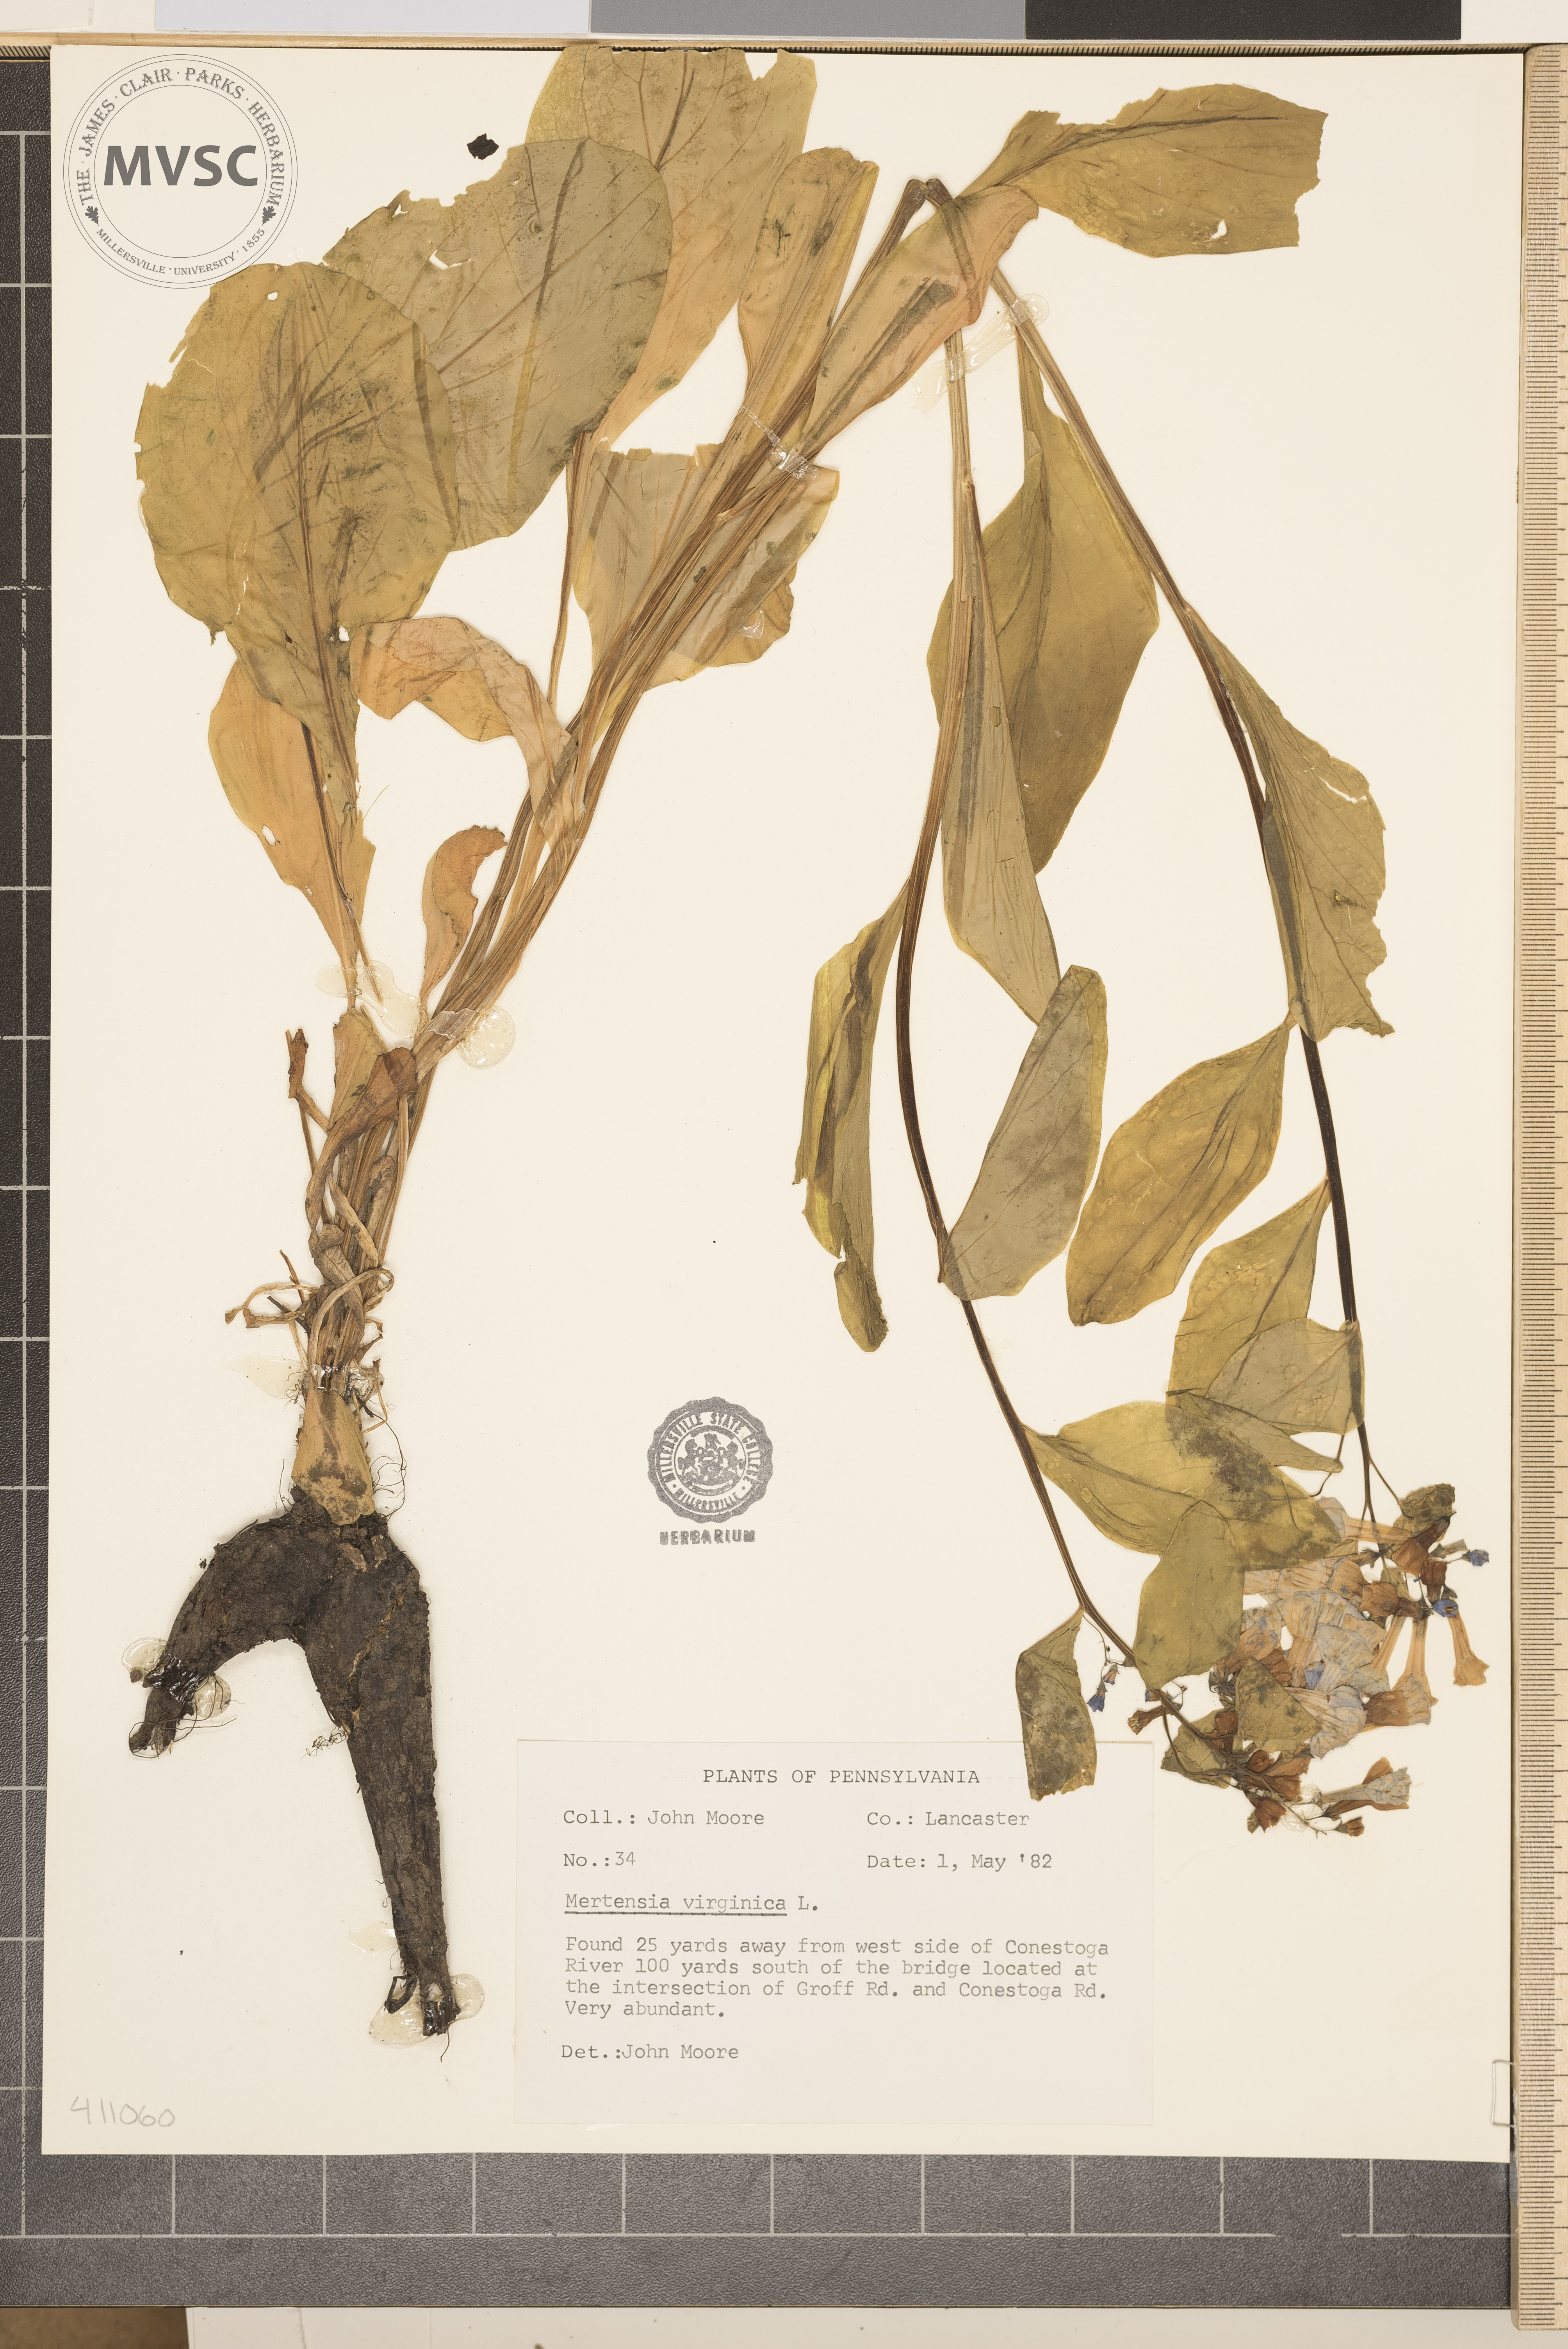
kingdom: Plantae
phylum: Tracheophyta
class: Magnoliopsida
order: Boraginales
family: Boraginaceae
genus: Mertensia
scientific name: Mertensia virginica
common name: Virginia bluebells
